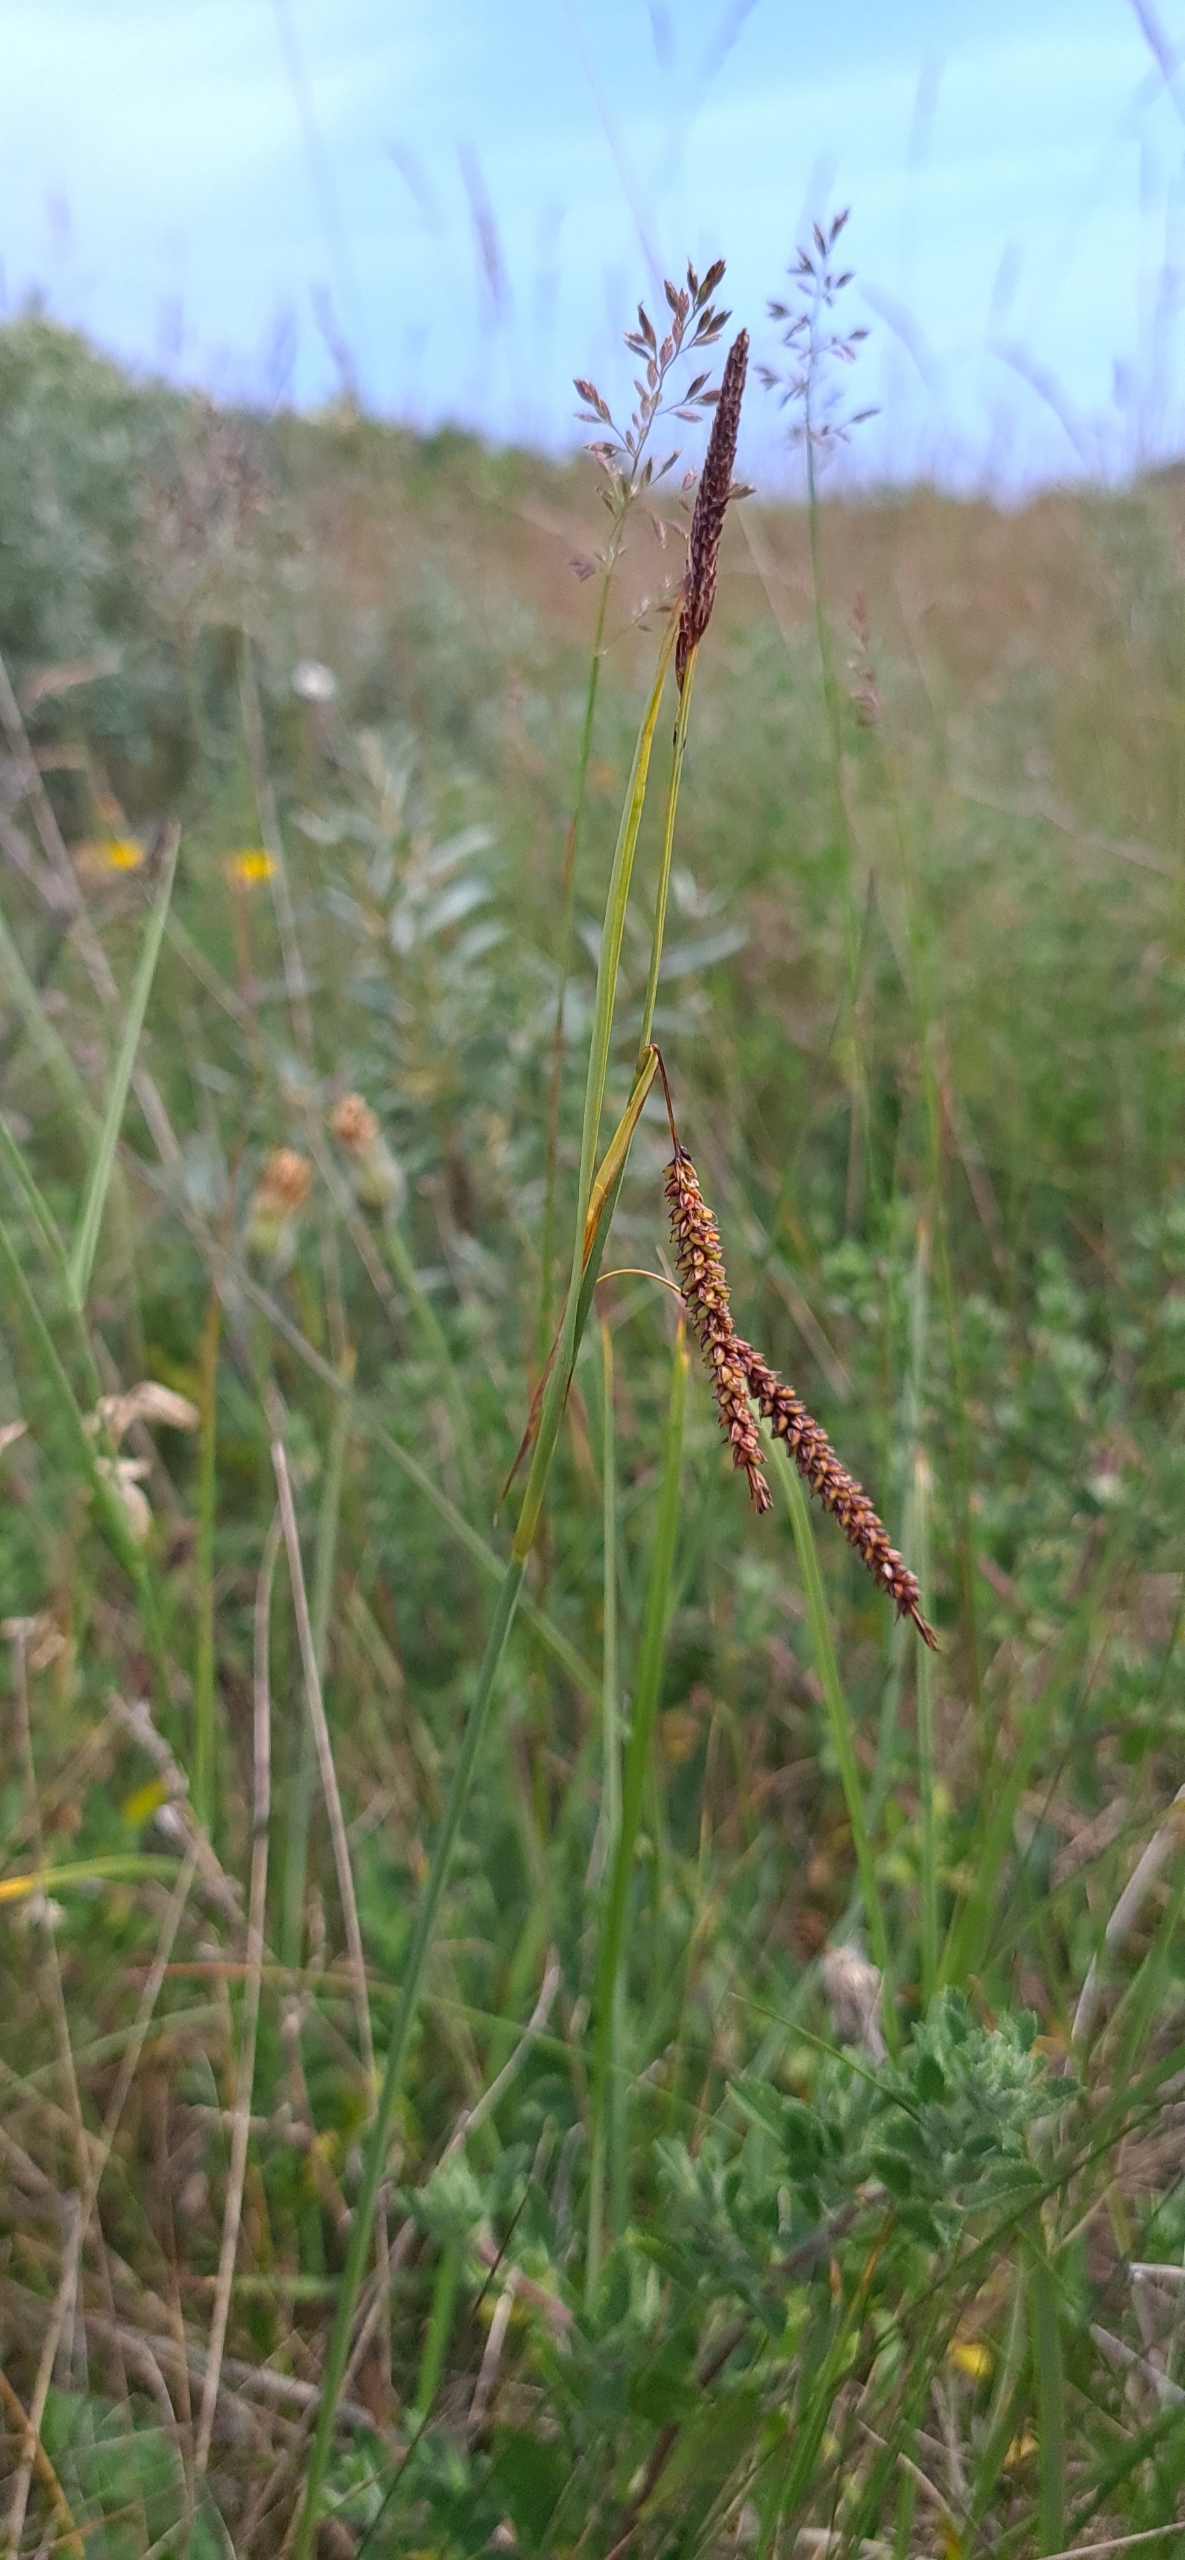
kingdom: Plantae
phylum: Tracheophyta
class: Liliopsida
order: Poales
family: Cyperaceae
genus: Carex
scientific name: Carex flacca
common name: Blågrøn star
